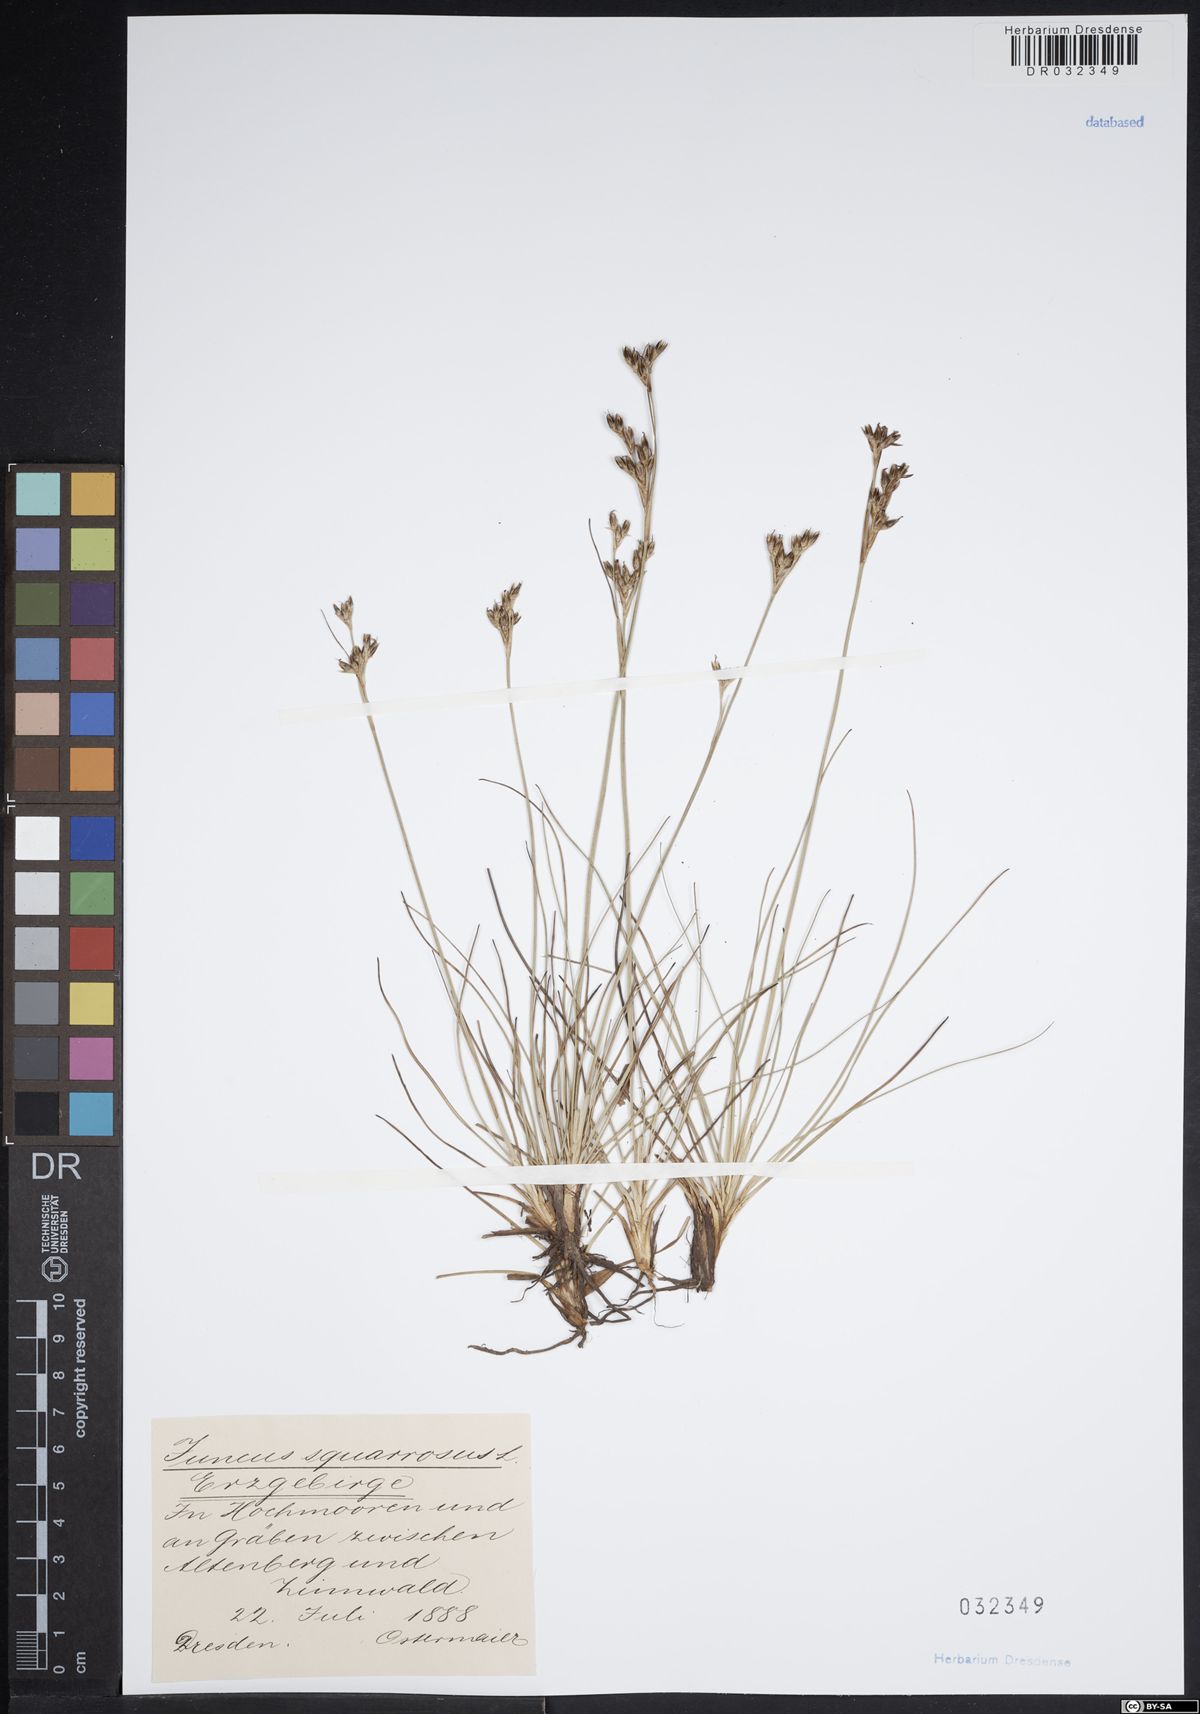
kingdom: Plantae
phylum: Tracheophyta
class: Liliopsida
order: Poales
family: Juncaceae
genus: Juncus
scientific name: Juncus squarrosus
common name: Heath rush
